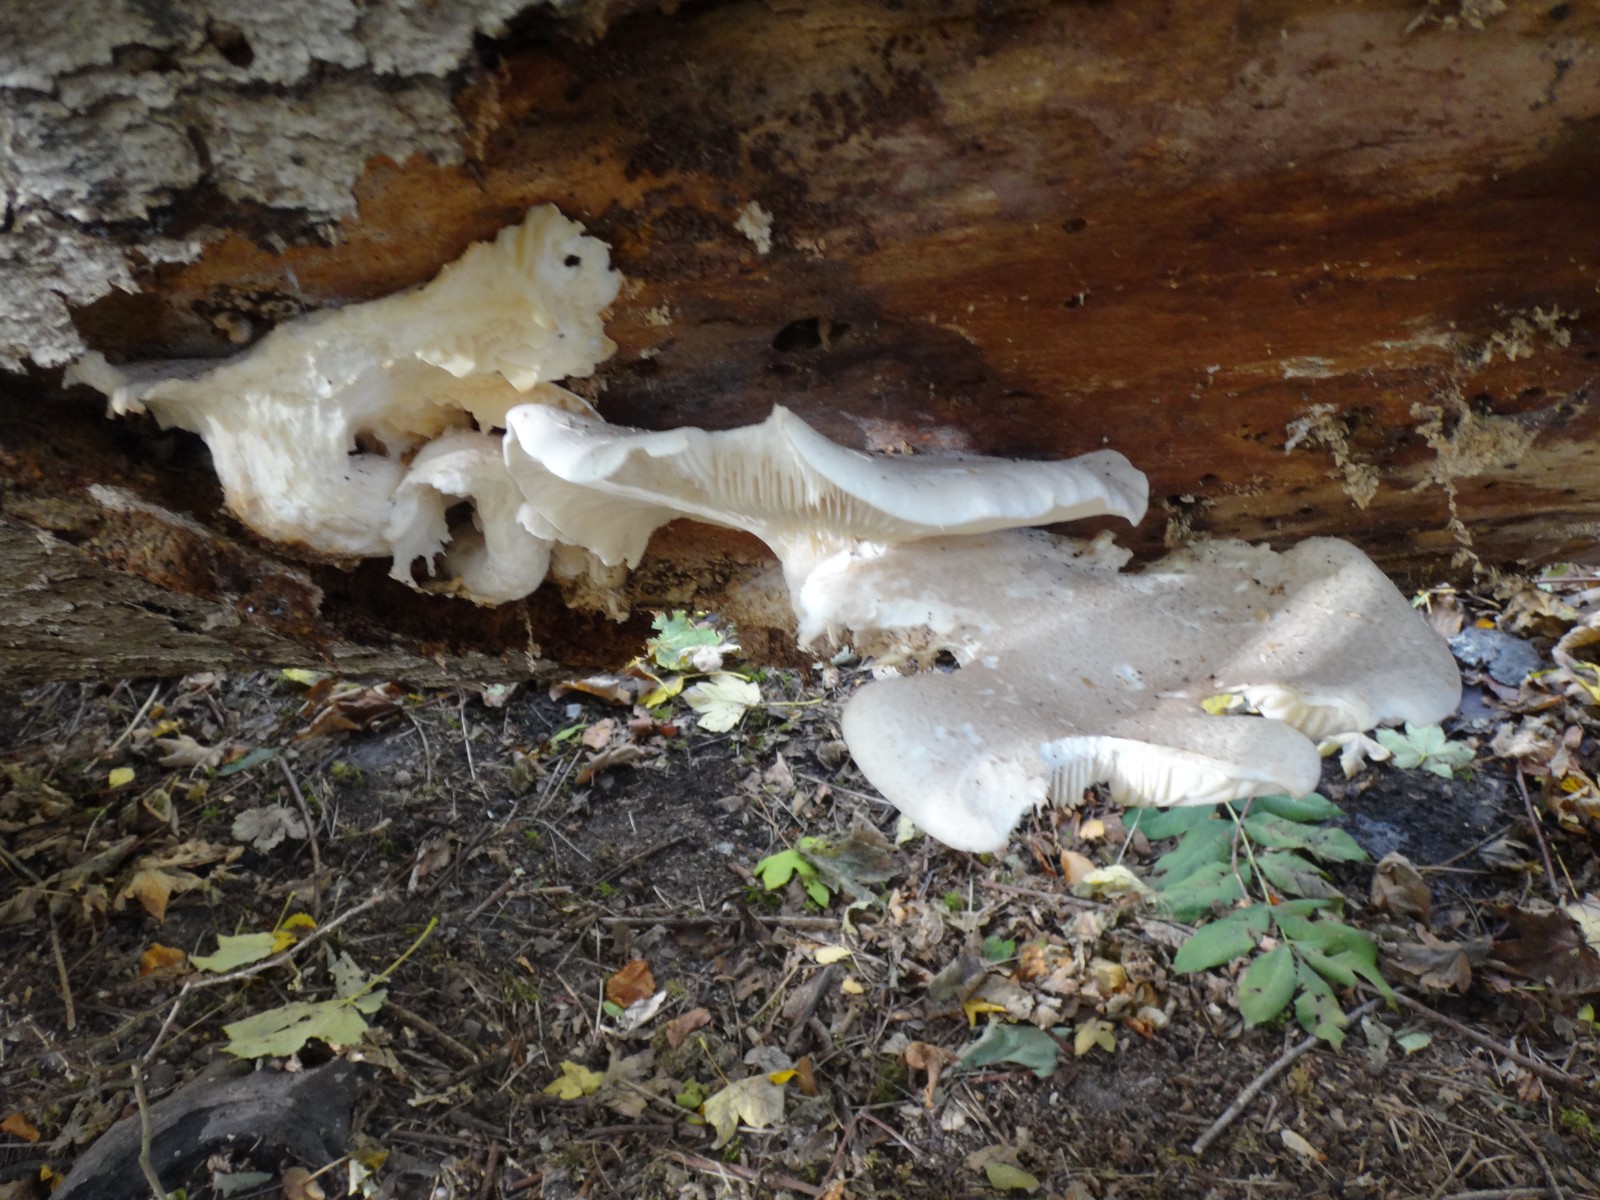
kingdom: Fungi
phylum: Basidiomycota
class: Agaricomycetes
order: Agaricales
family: Pleurotaceae
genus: Pleurotus
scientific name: Pleurotus dryinus
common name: korkagtig østershat
